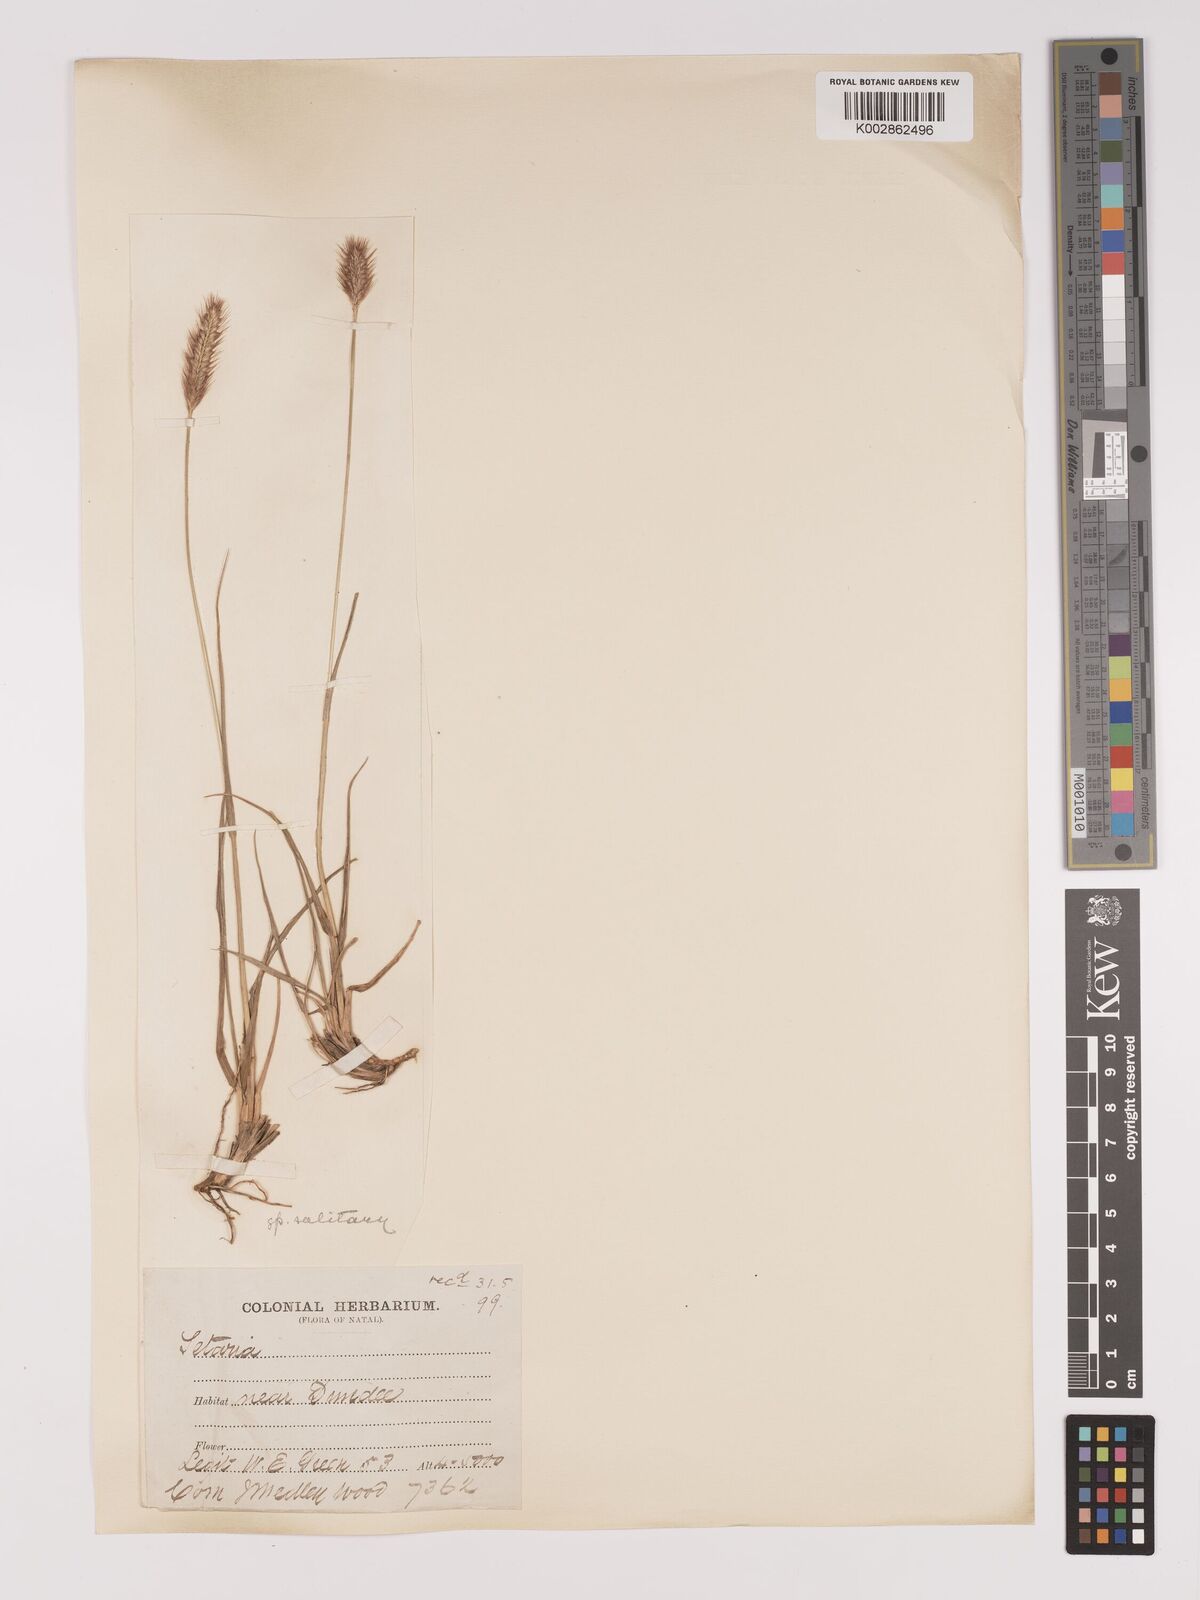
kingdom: Plantae
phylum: Tracheophyta
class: Liliopsida
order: Poales
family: Poaceae
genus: Setaria
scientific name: Setaria sphacelata
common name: African bristlegrass
